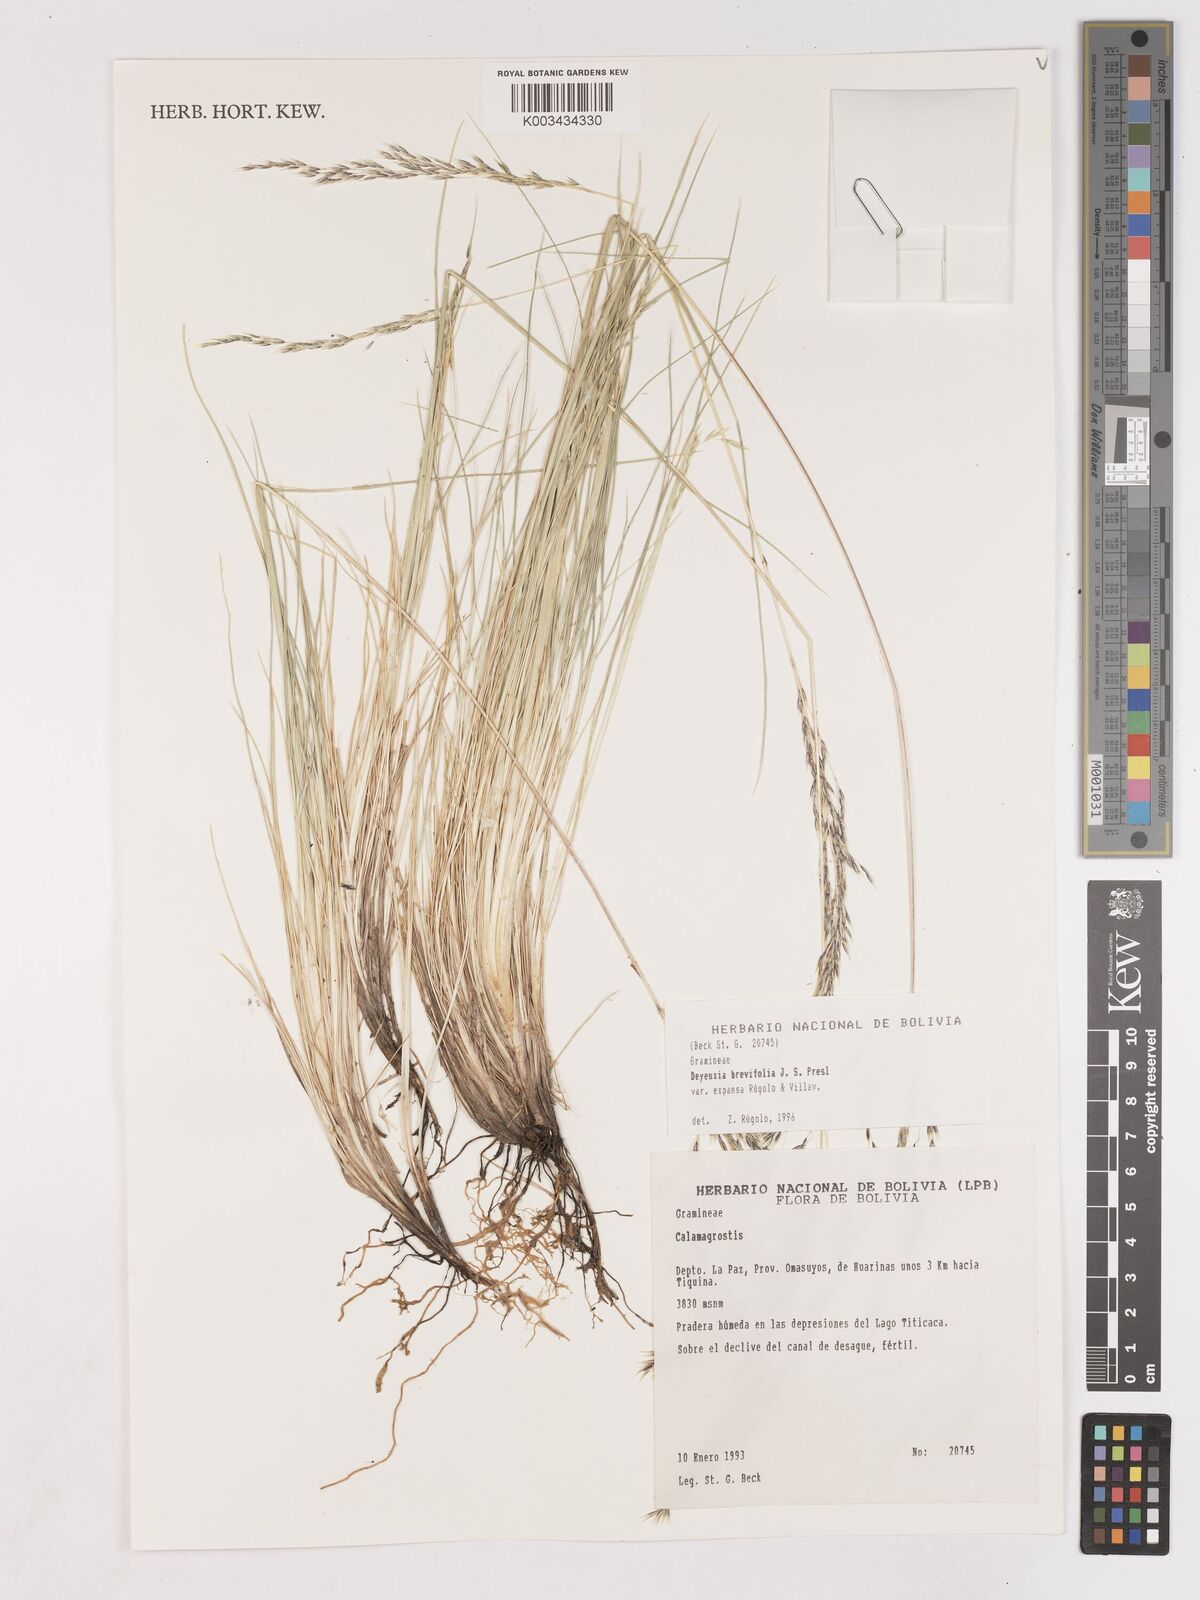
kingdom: Plantae
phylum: Tracheophyta
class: Liliopsida
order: Poales
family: Poaceae
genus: Cinnagrostis
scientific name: Cinnagrostis brevifolia
